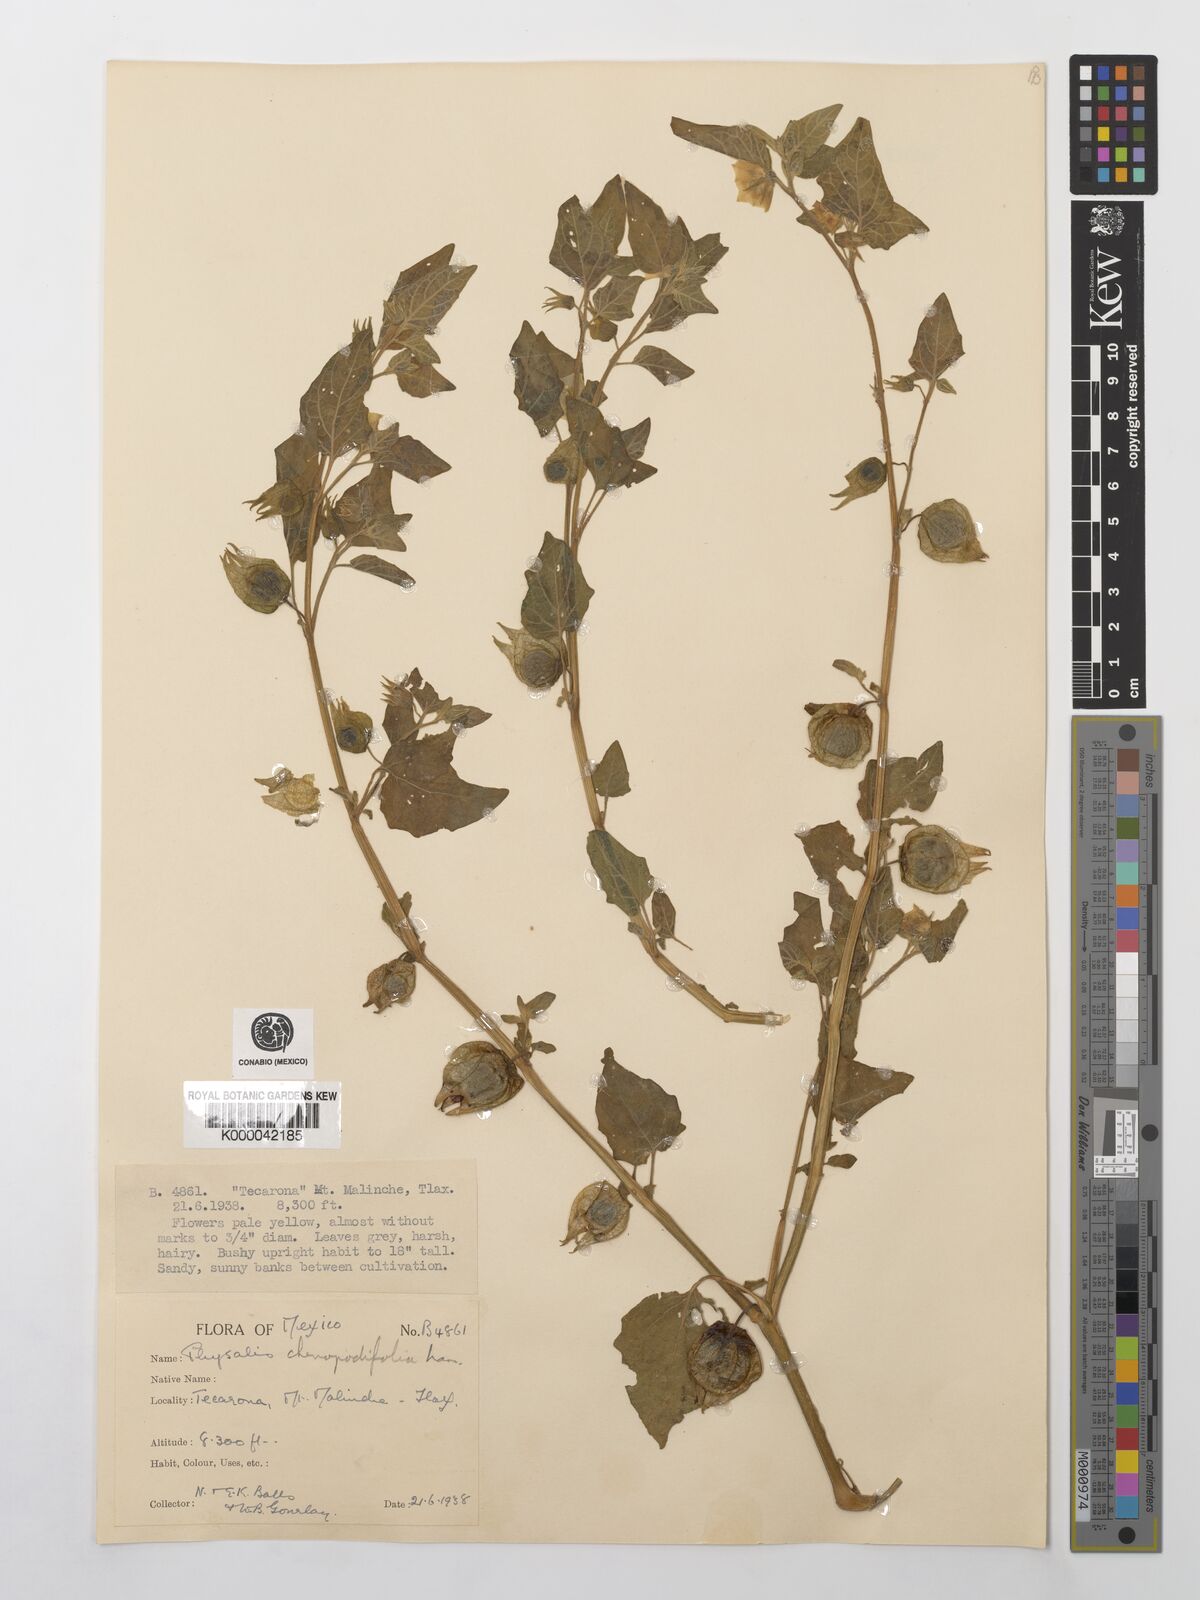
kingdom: Plantae
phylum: Tracheophyta
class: Magnoliopsida
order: Solanales
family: Solanaceae
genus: Physalis
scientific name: Physalis peruviana
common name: Cape-gooseberry
